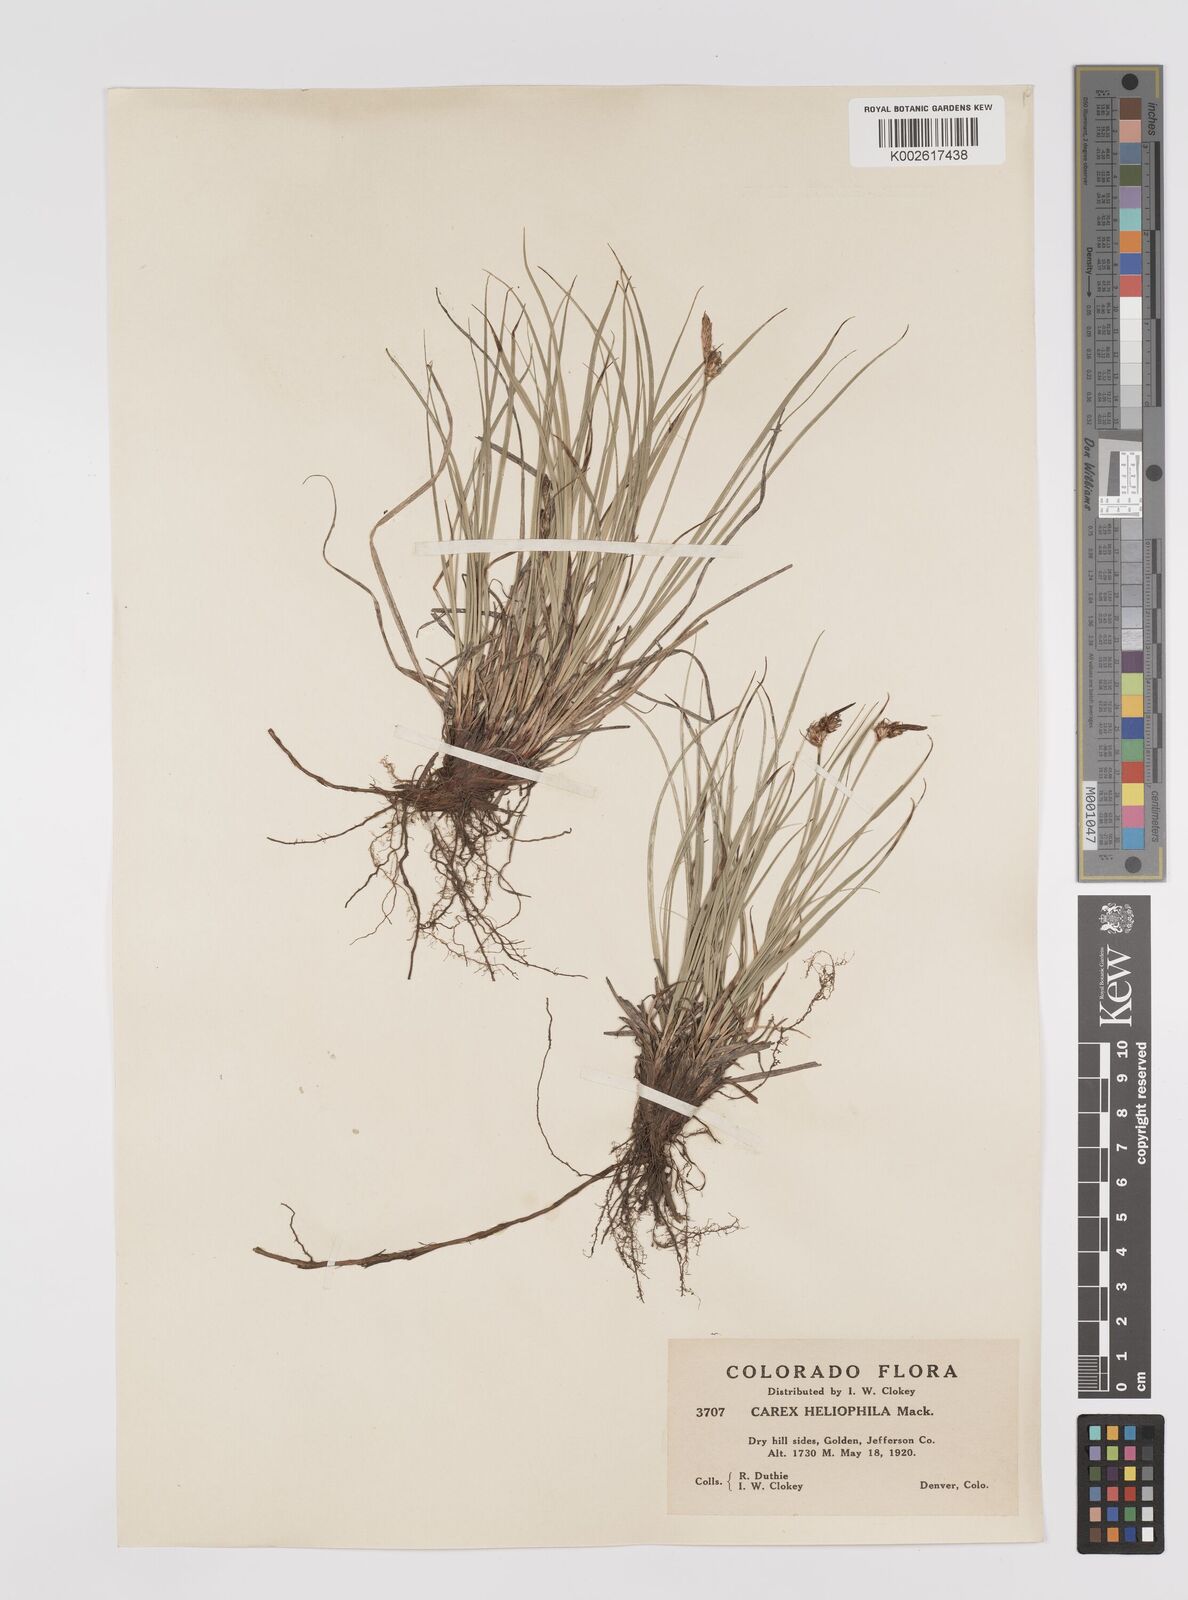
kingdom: Plantae
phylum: Tracheophyta
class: Liliopsida
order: Poales
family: Cyperaceae
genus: Carex
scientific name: Carex inops
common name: Long-stolon sedge
